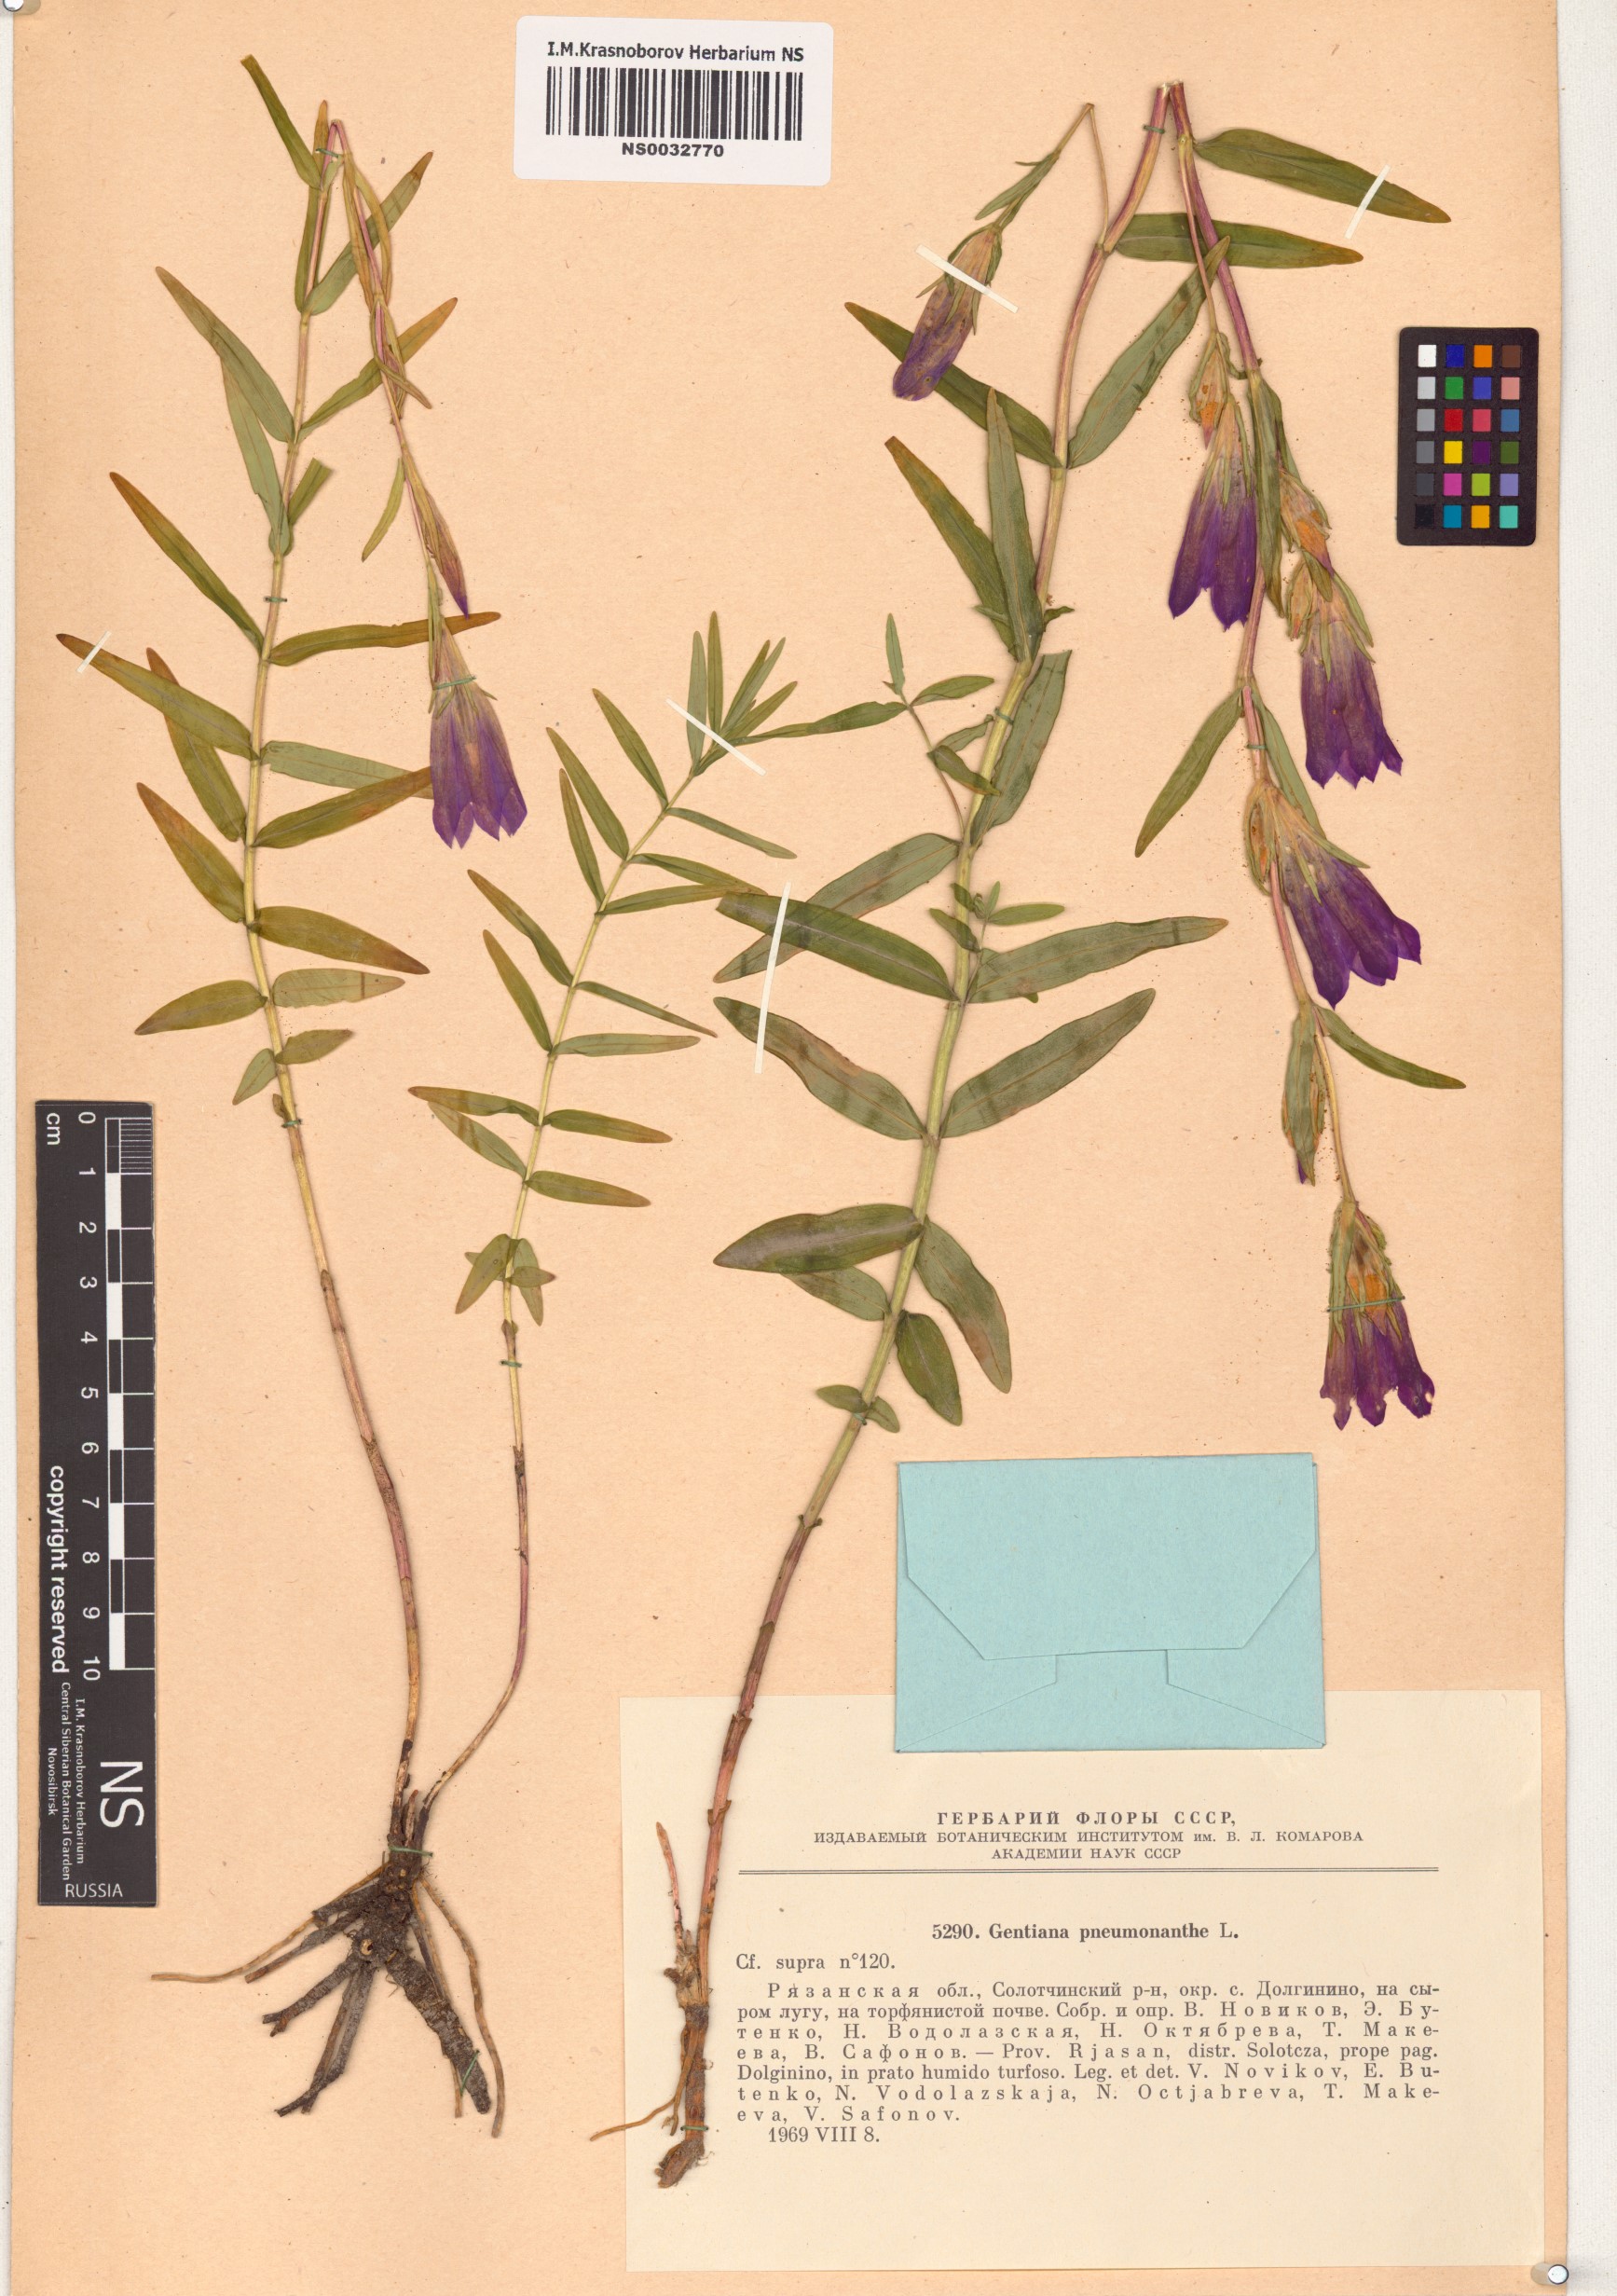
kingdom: Plantae
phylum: Tracheophyta
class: Magnoliopsida
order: Gentianales
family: Gentianaceae
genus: Gentiana
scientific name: Gentiana pneumonanthe
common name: Marsh gentian
